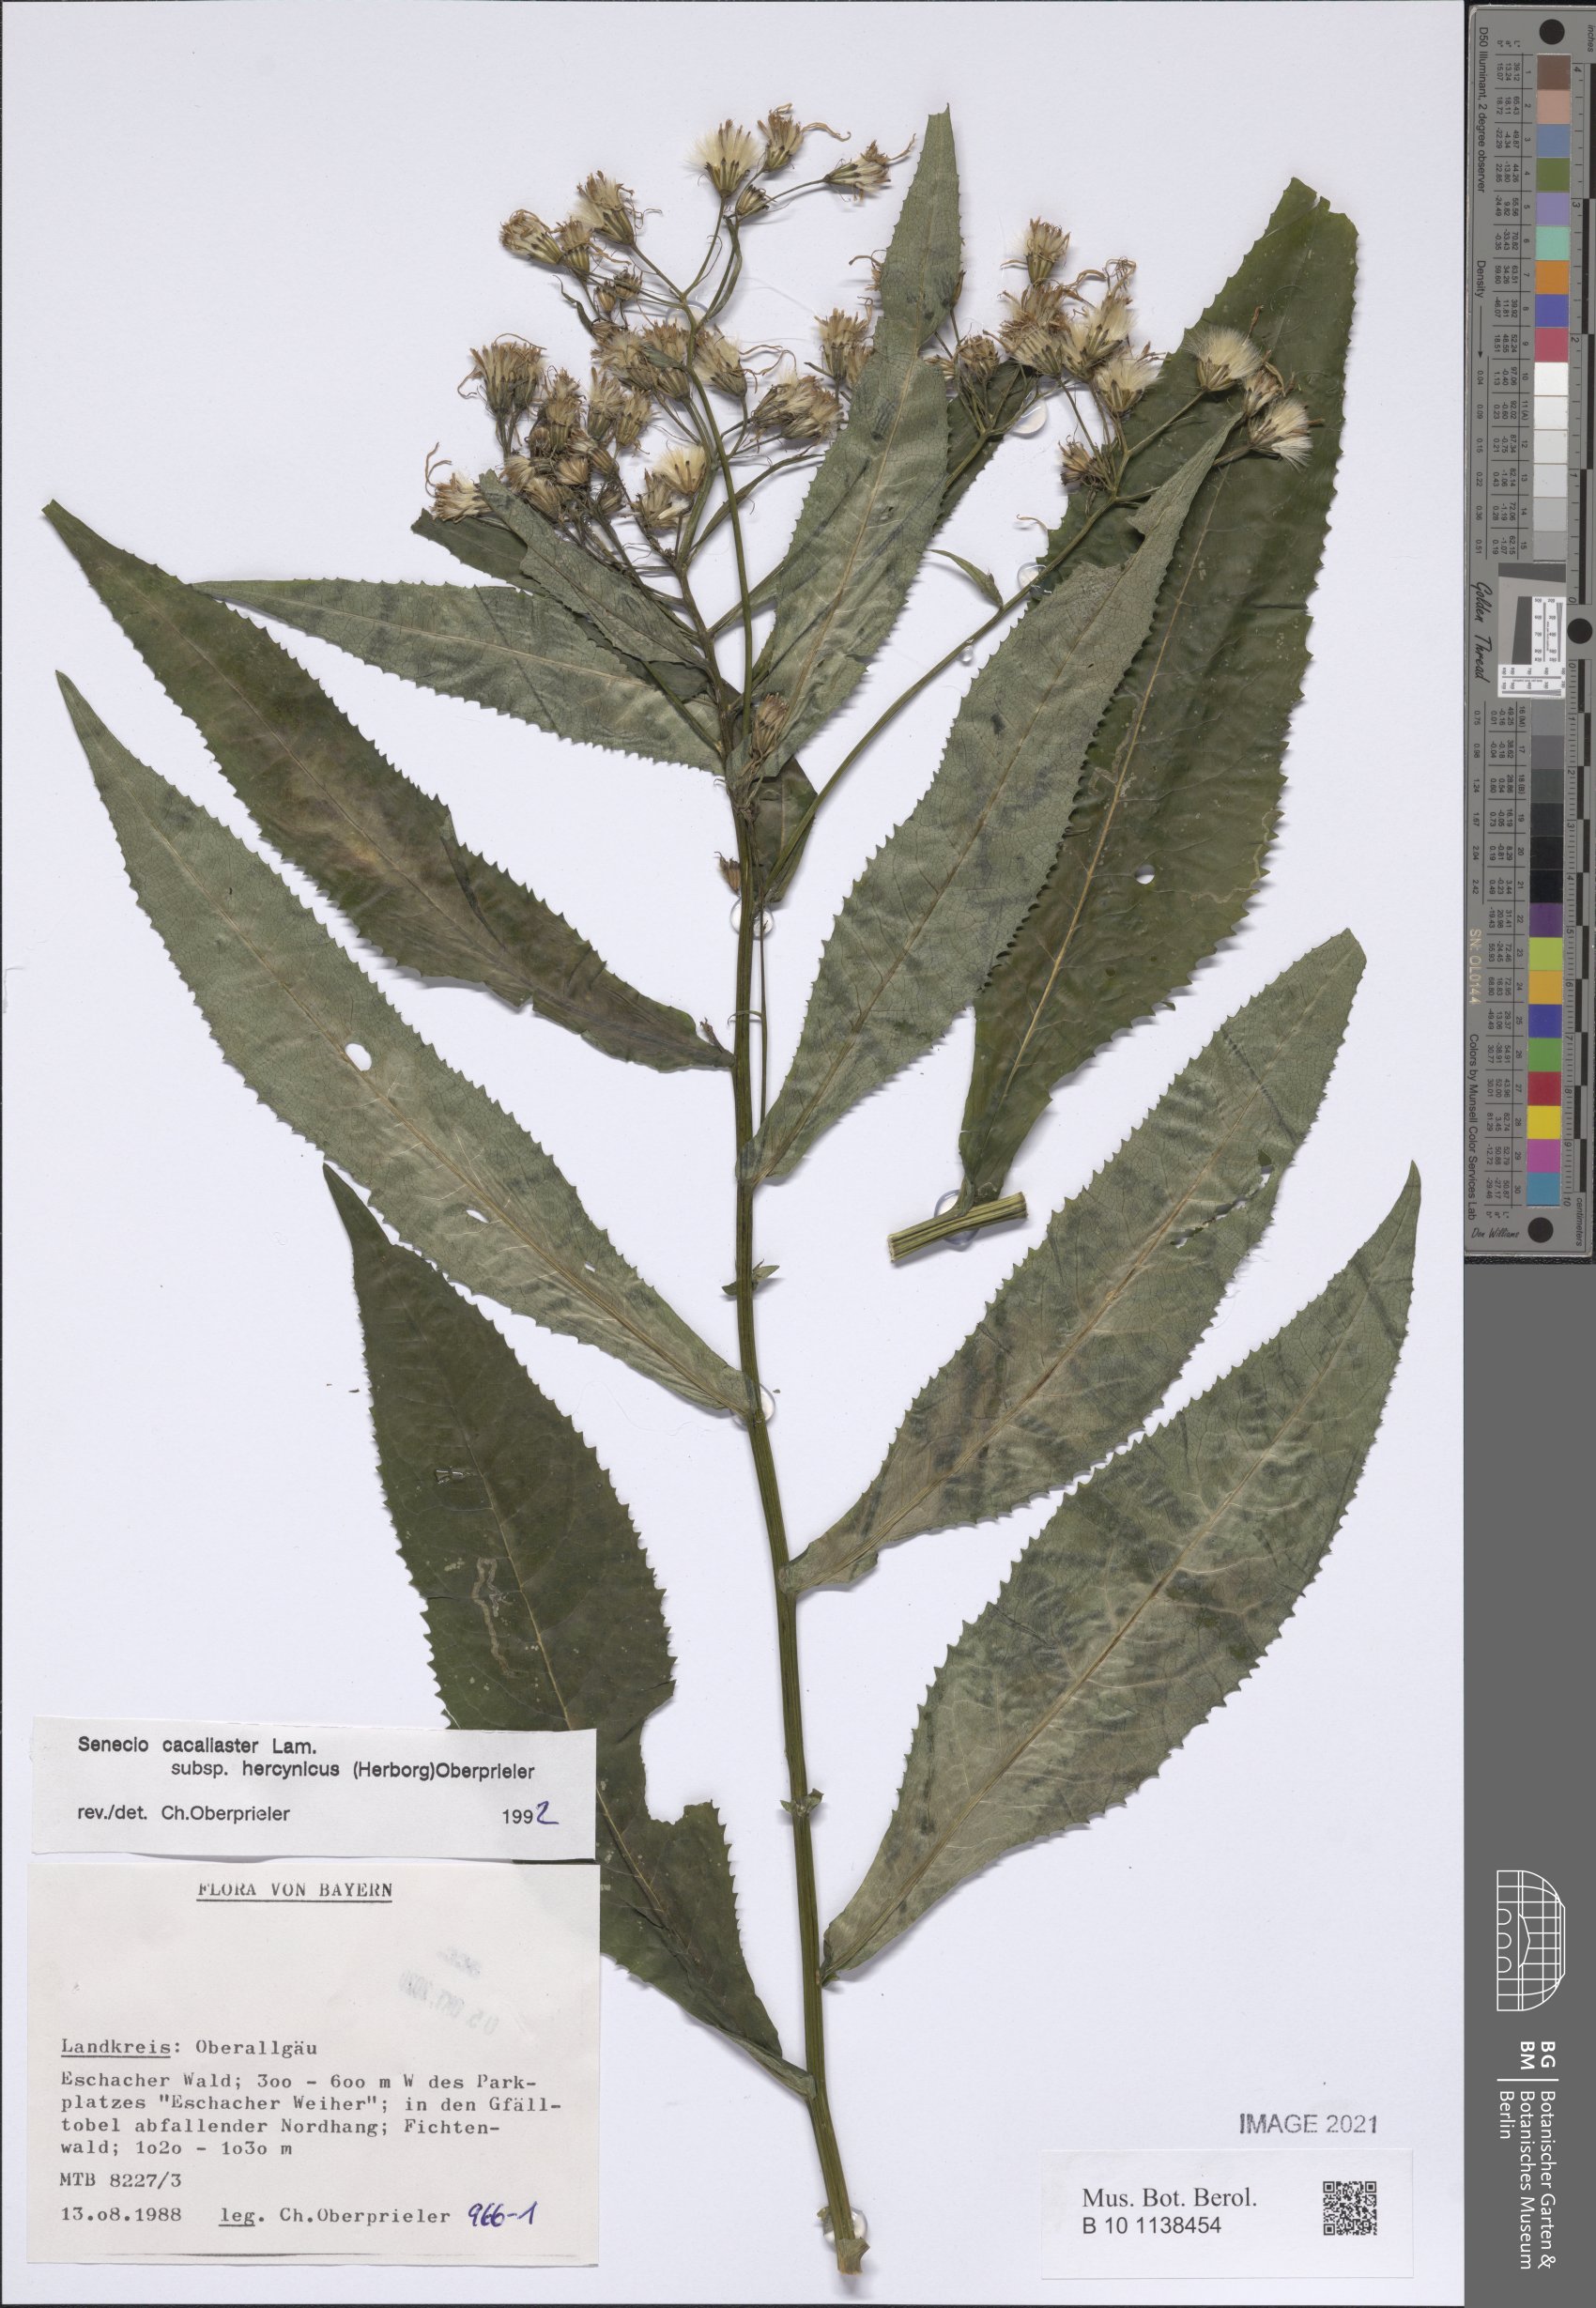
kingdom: Plantae
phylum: Tracheophyta
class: Magnoliopsida
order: Asterales
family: Asteraceae
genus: Senecio
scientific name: Senecio hercynicus
